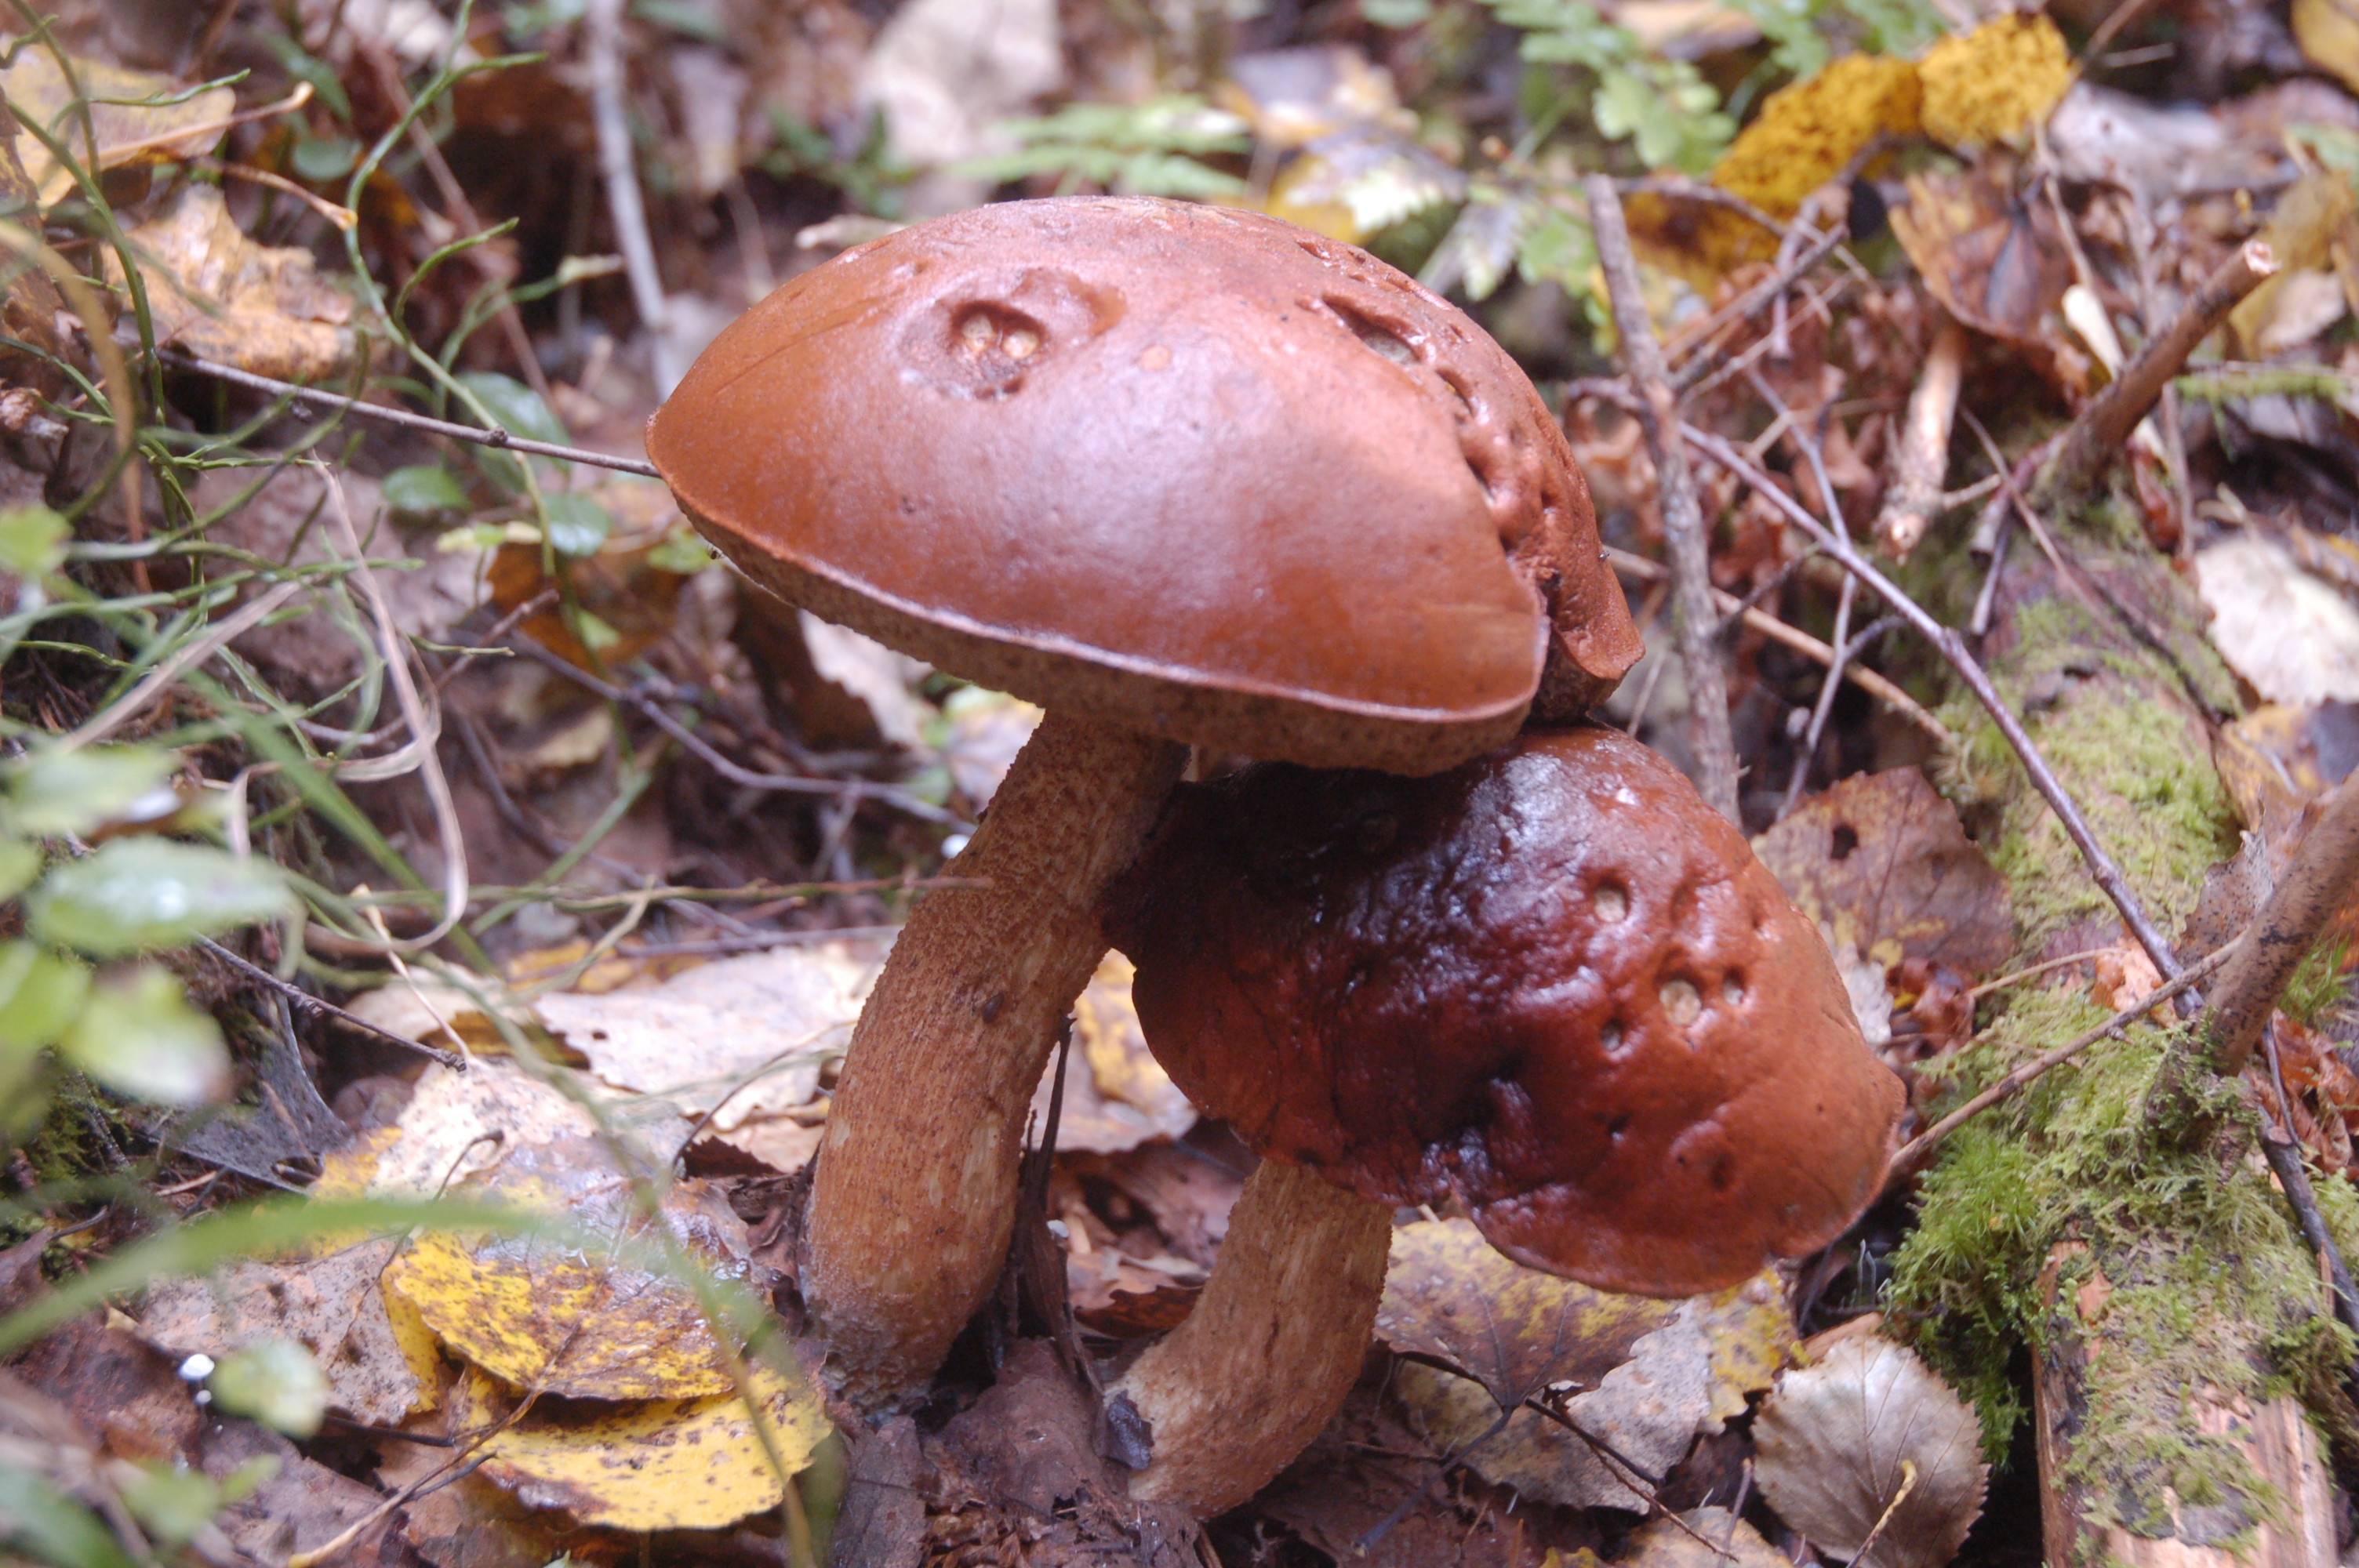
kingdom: Fungi
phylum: Basidiomycota
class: Agaricomycetes
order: Boletales
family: Boletaceae
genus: Leccinum
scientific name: Leccinum aurantiacum
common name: Orange bolete
